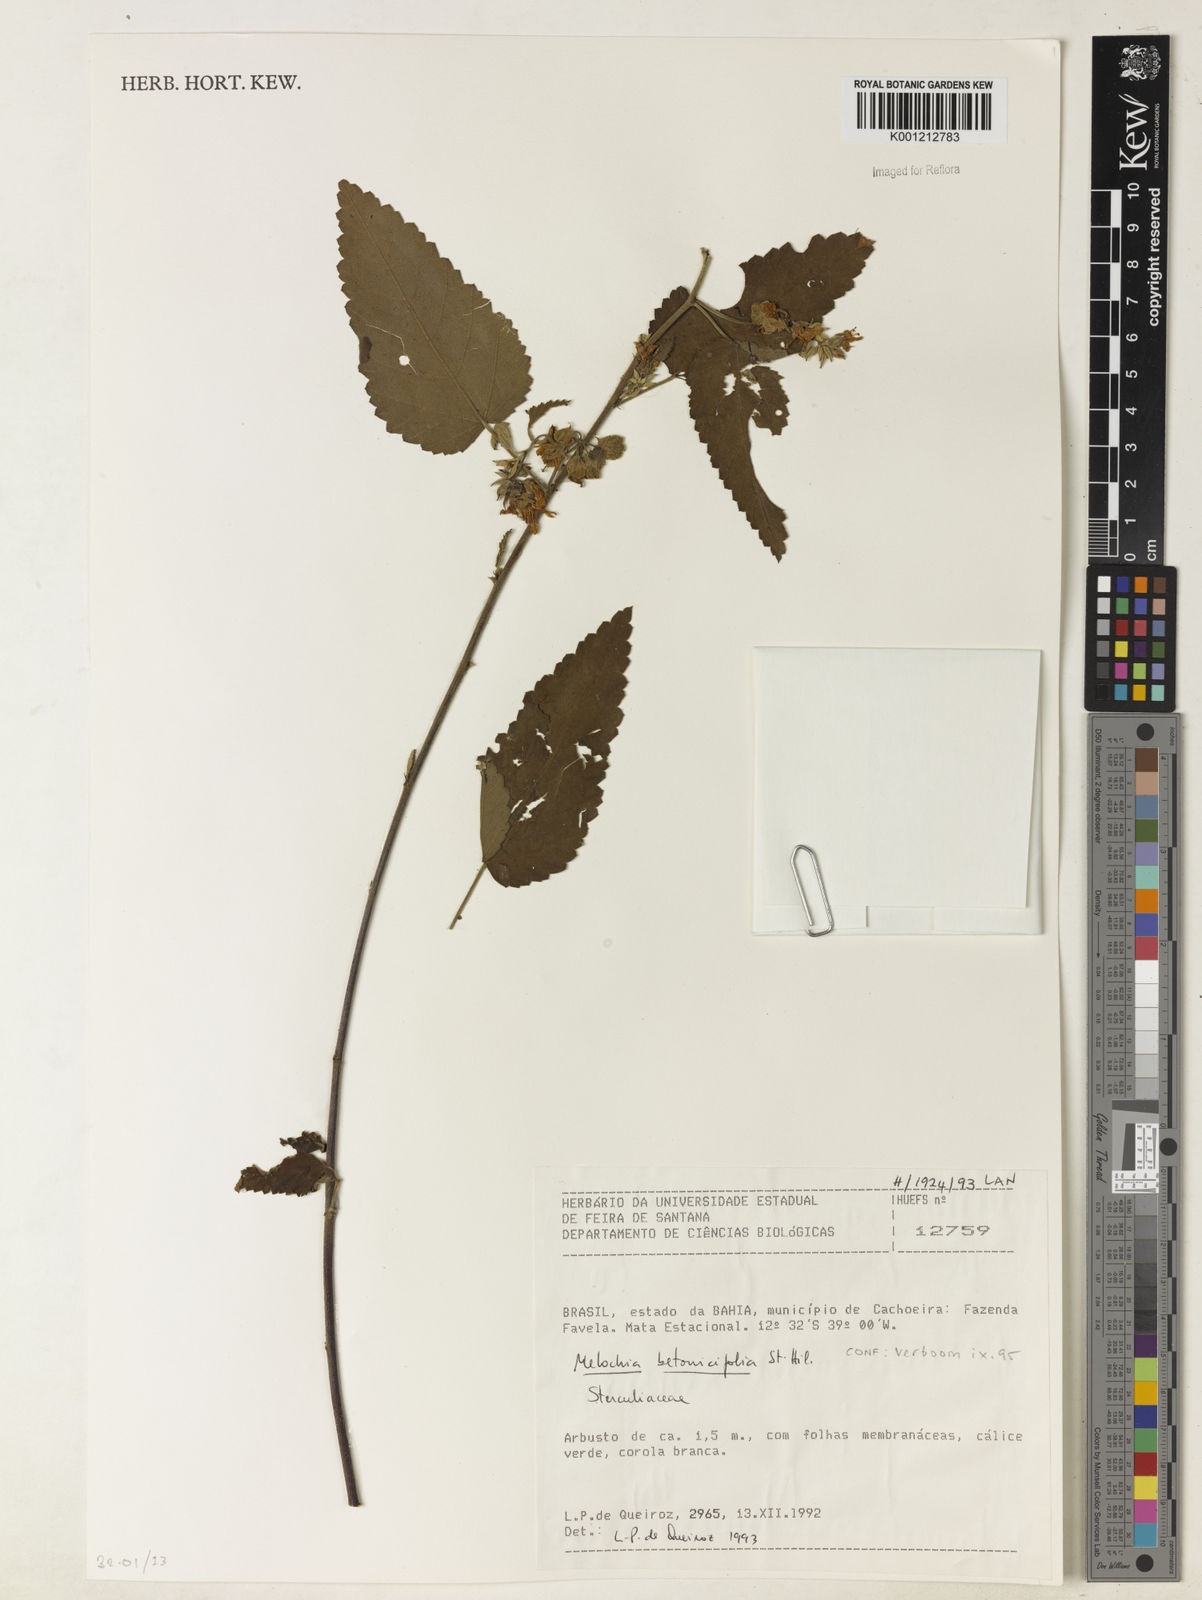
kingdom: Plantae
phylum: Tracheophyta
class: Magnoliopsida
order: Malvales
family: Malvaceae
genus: Melochia
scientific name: Melochia betonicifolia
